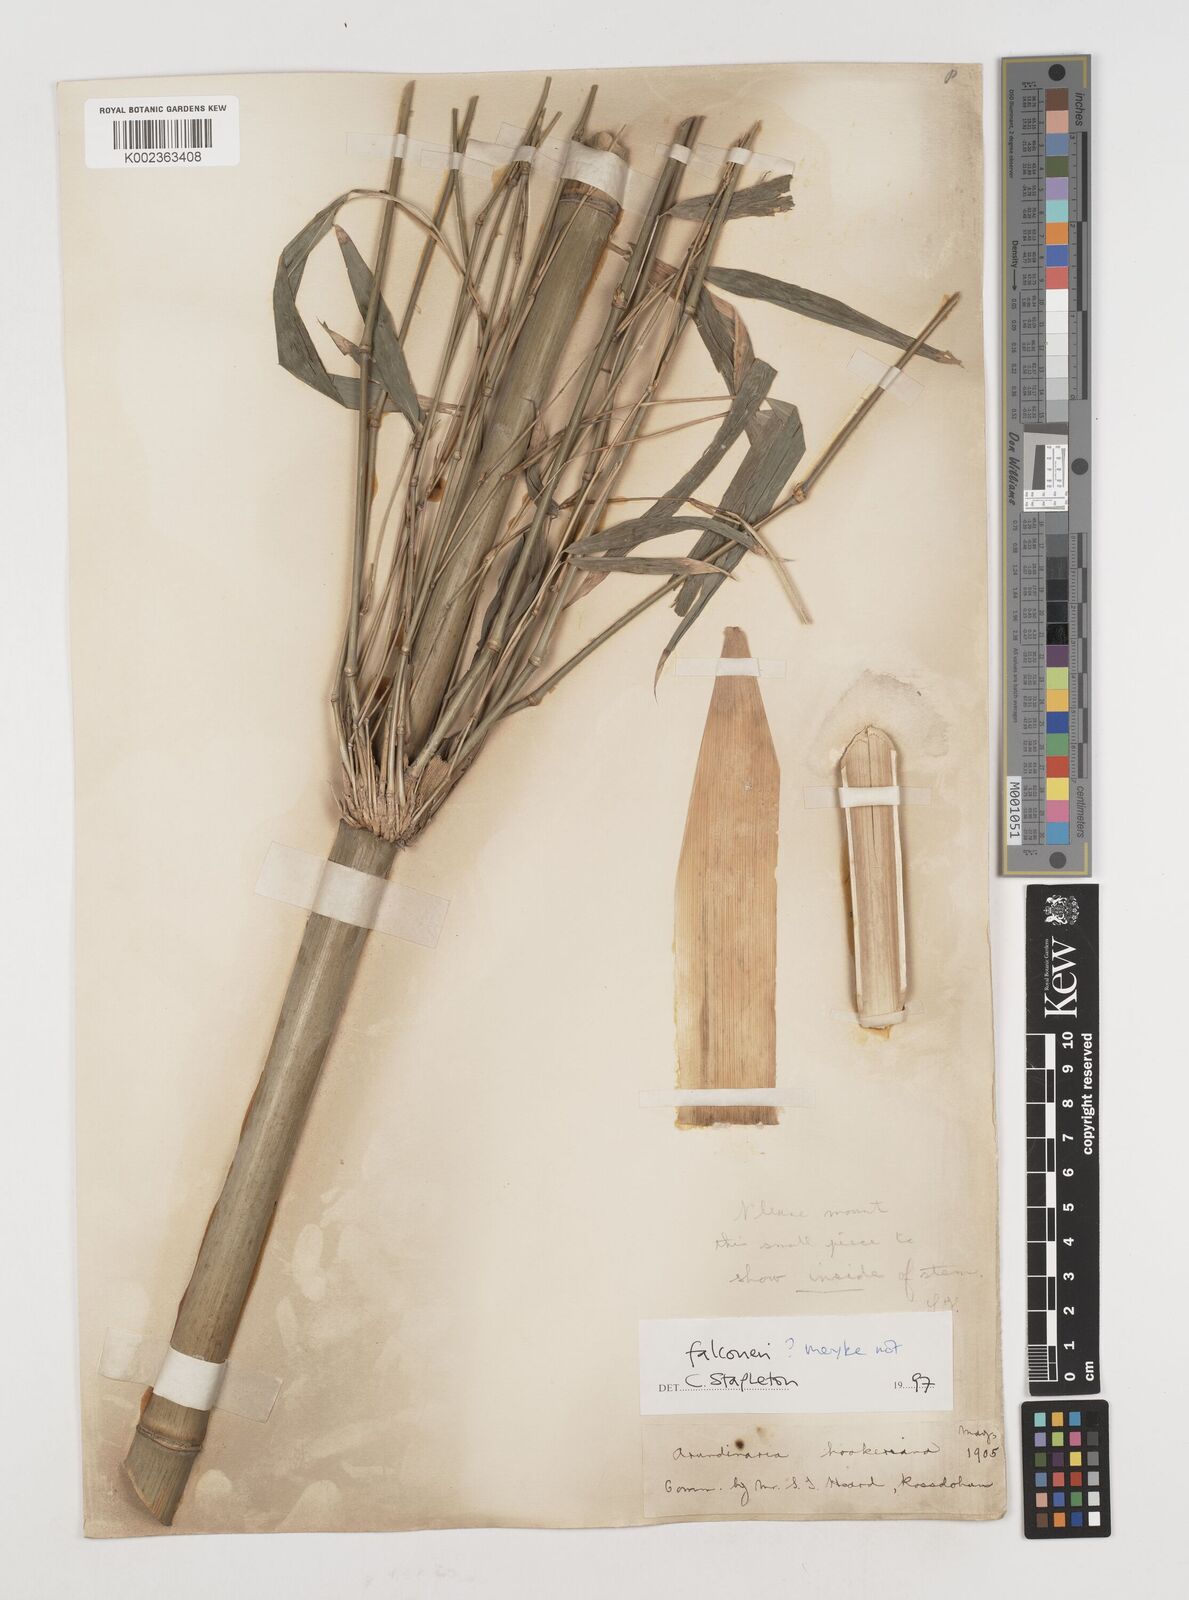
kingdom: Plantae
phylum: Tracheophyta
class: Liliopsida
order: Poales
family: Poaceae
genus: Himalayacalamus
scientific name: Himalayacalamus falconeri
